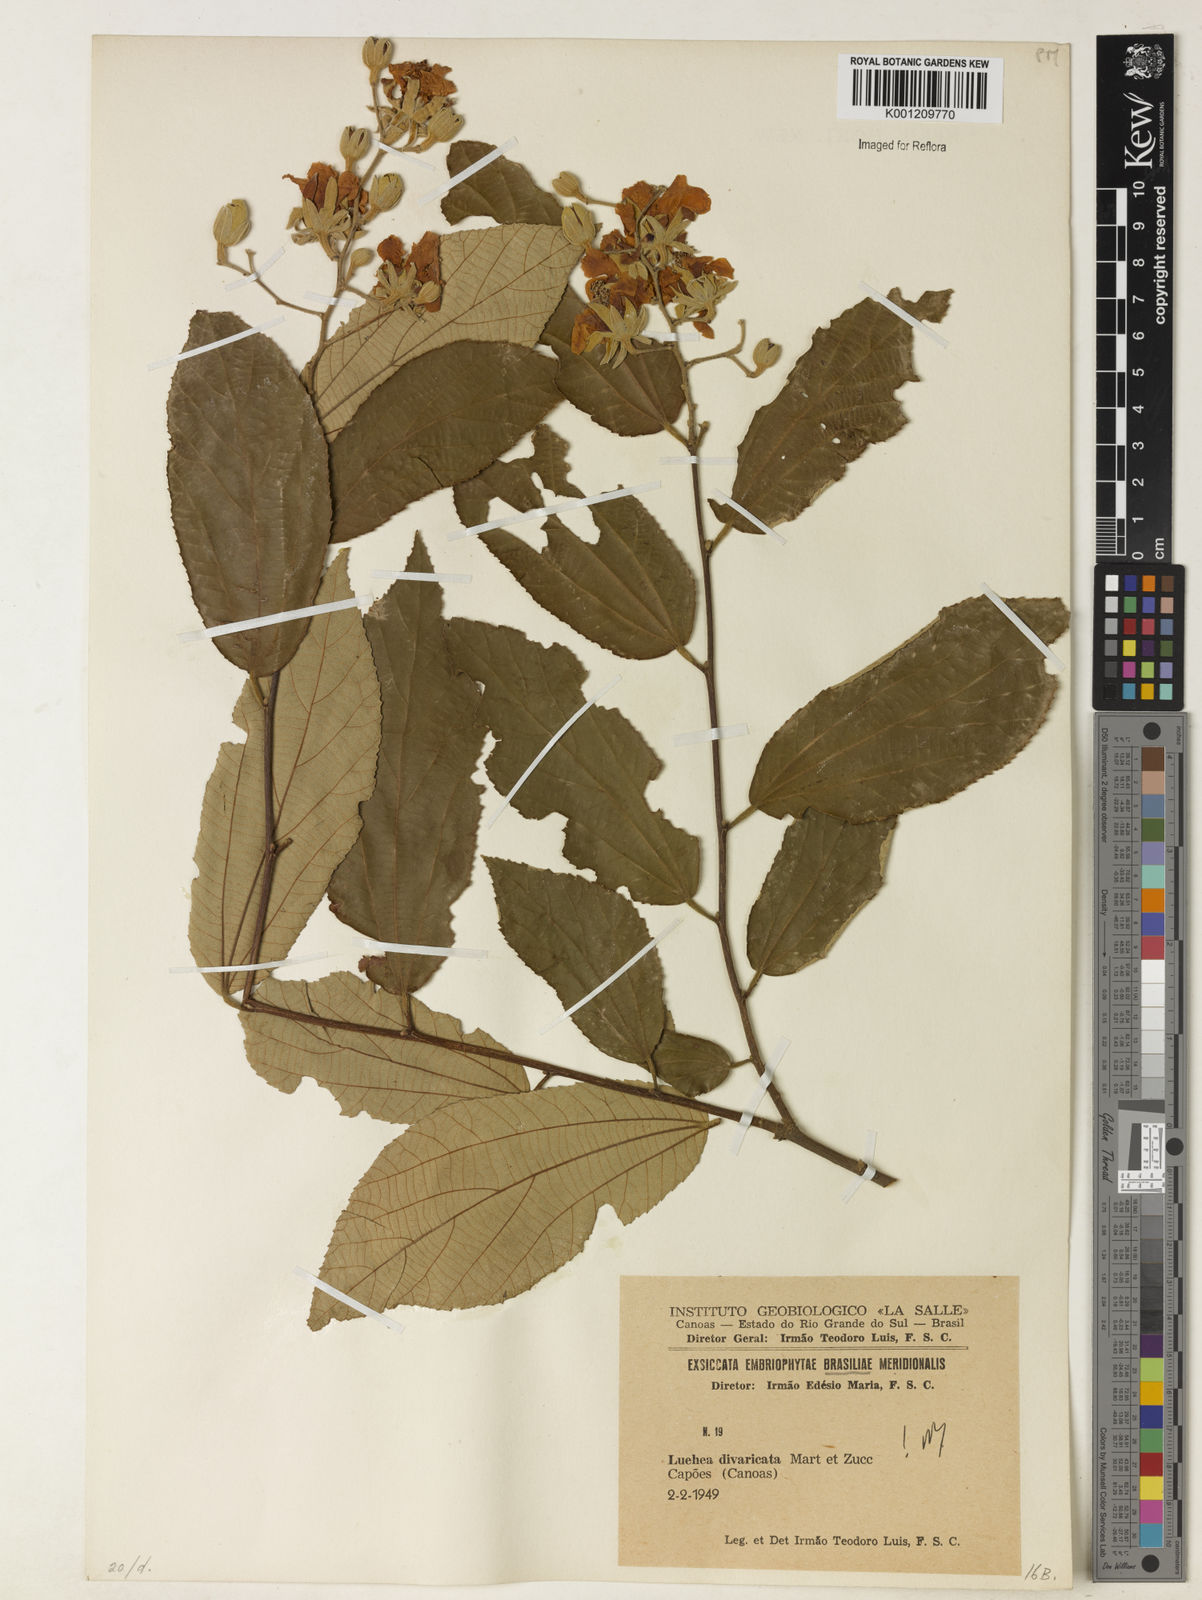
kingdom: Plantae
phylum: Tracheophyta
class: Magnoliopsida
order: Malvales
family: Malvaceae
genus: Luehea
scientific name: Luehea divaricata
